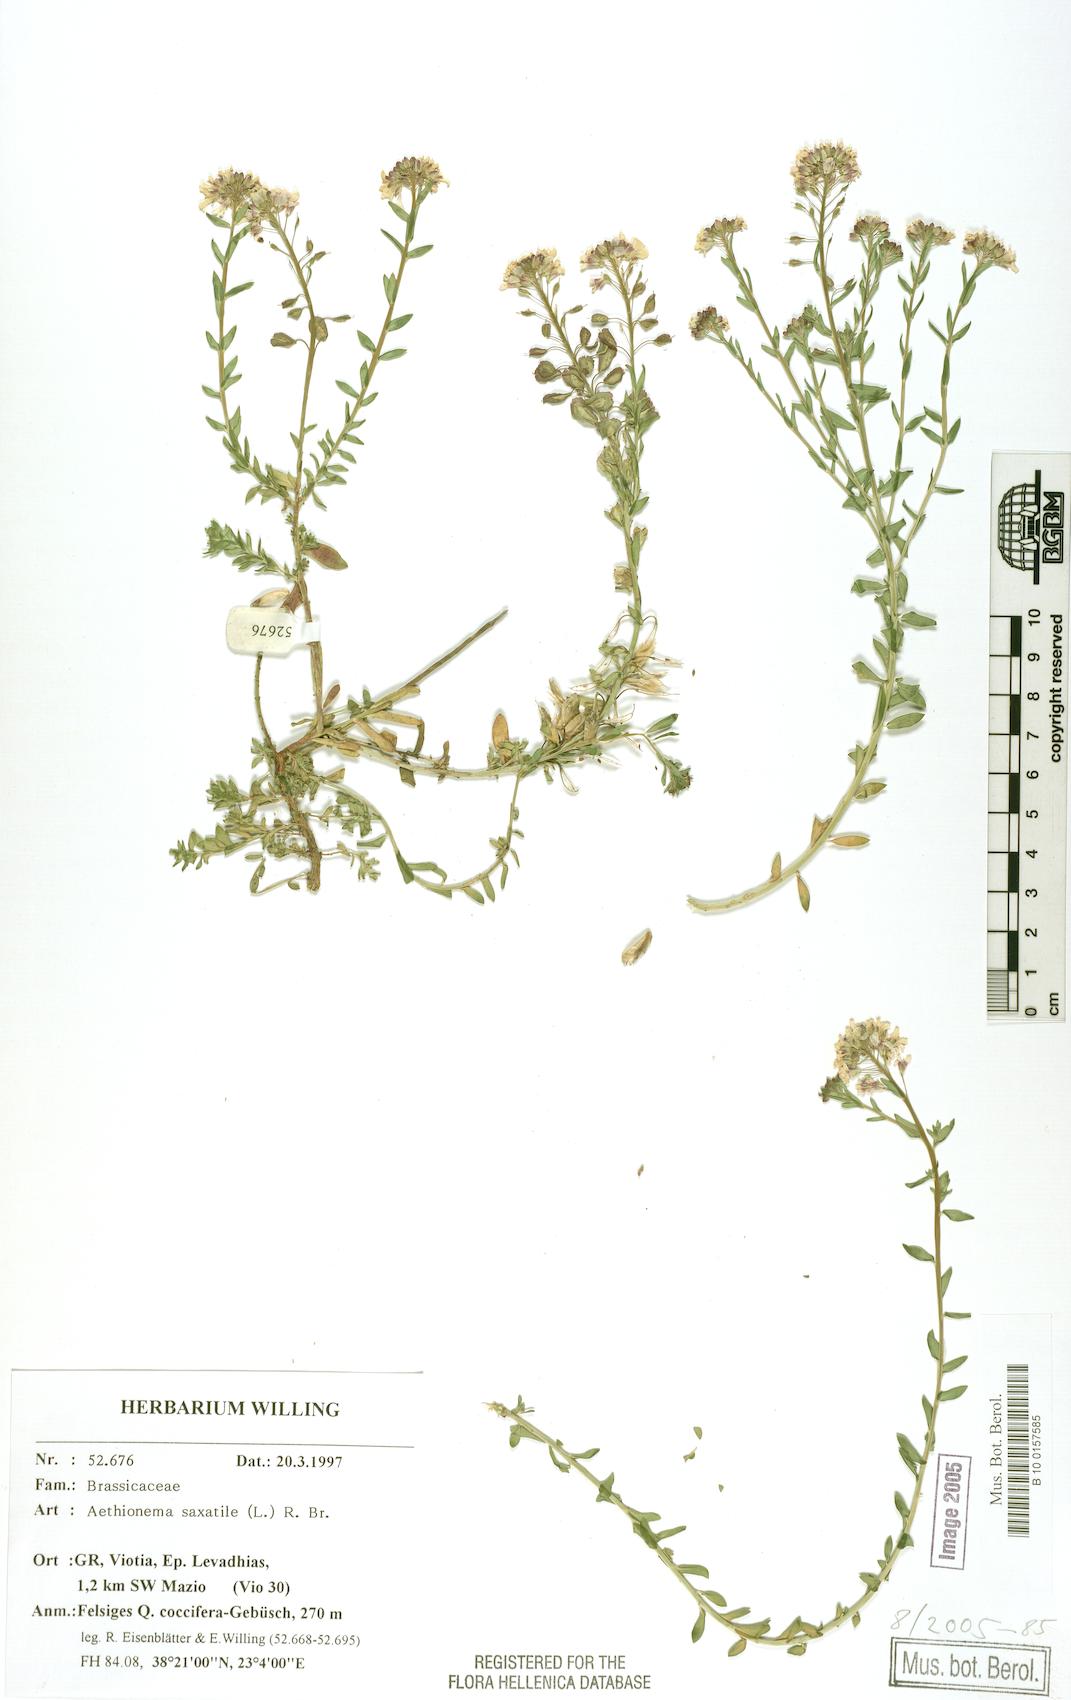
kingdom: Plantae
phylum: Tracheophyta
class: Magnoliopsida
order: Brassicales
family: Brassicaceae
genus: Aethionema
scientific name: Aethionema saxatile
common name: Burnt candytuft
